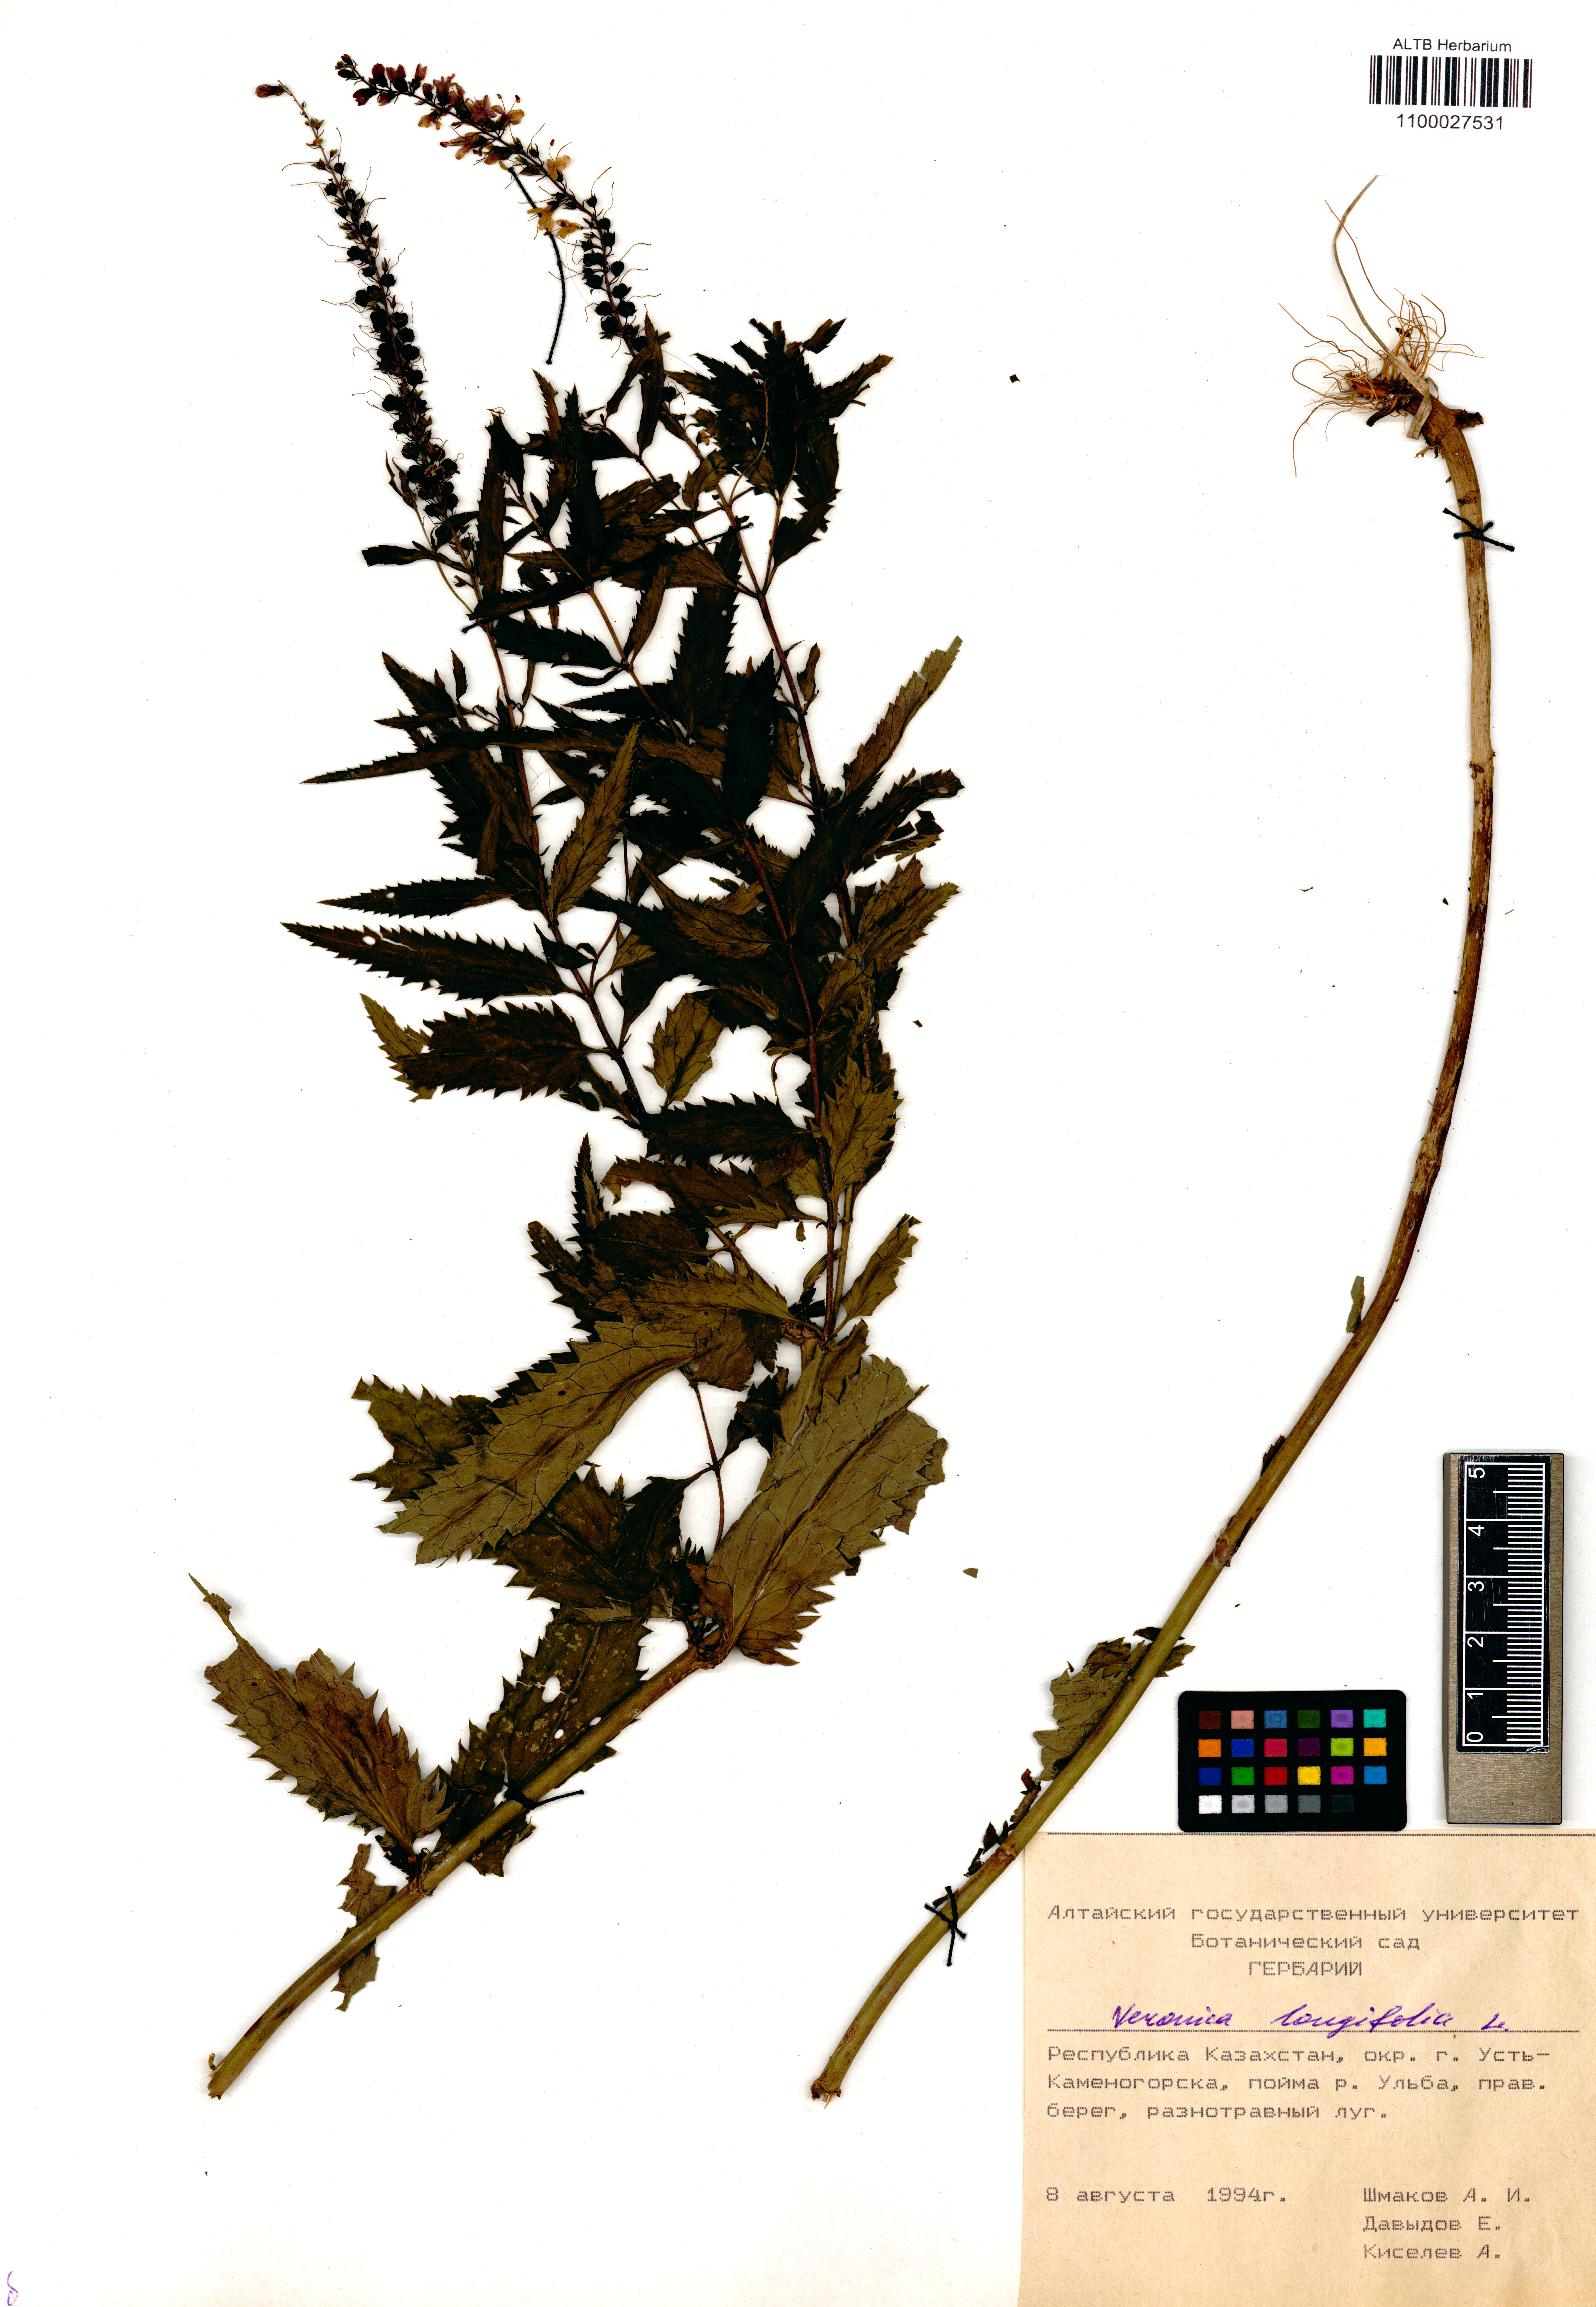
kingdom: Plantae
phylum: Tracheophyta
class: Magnoliopsida
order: Lamiales
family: Plantaginaceae
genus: Veronica
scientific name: Veronica longifolia
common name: Garden speedwell
